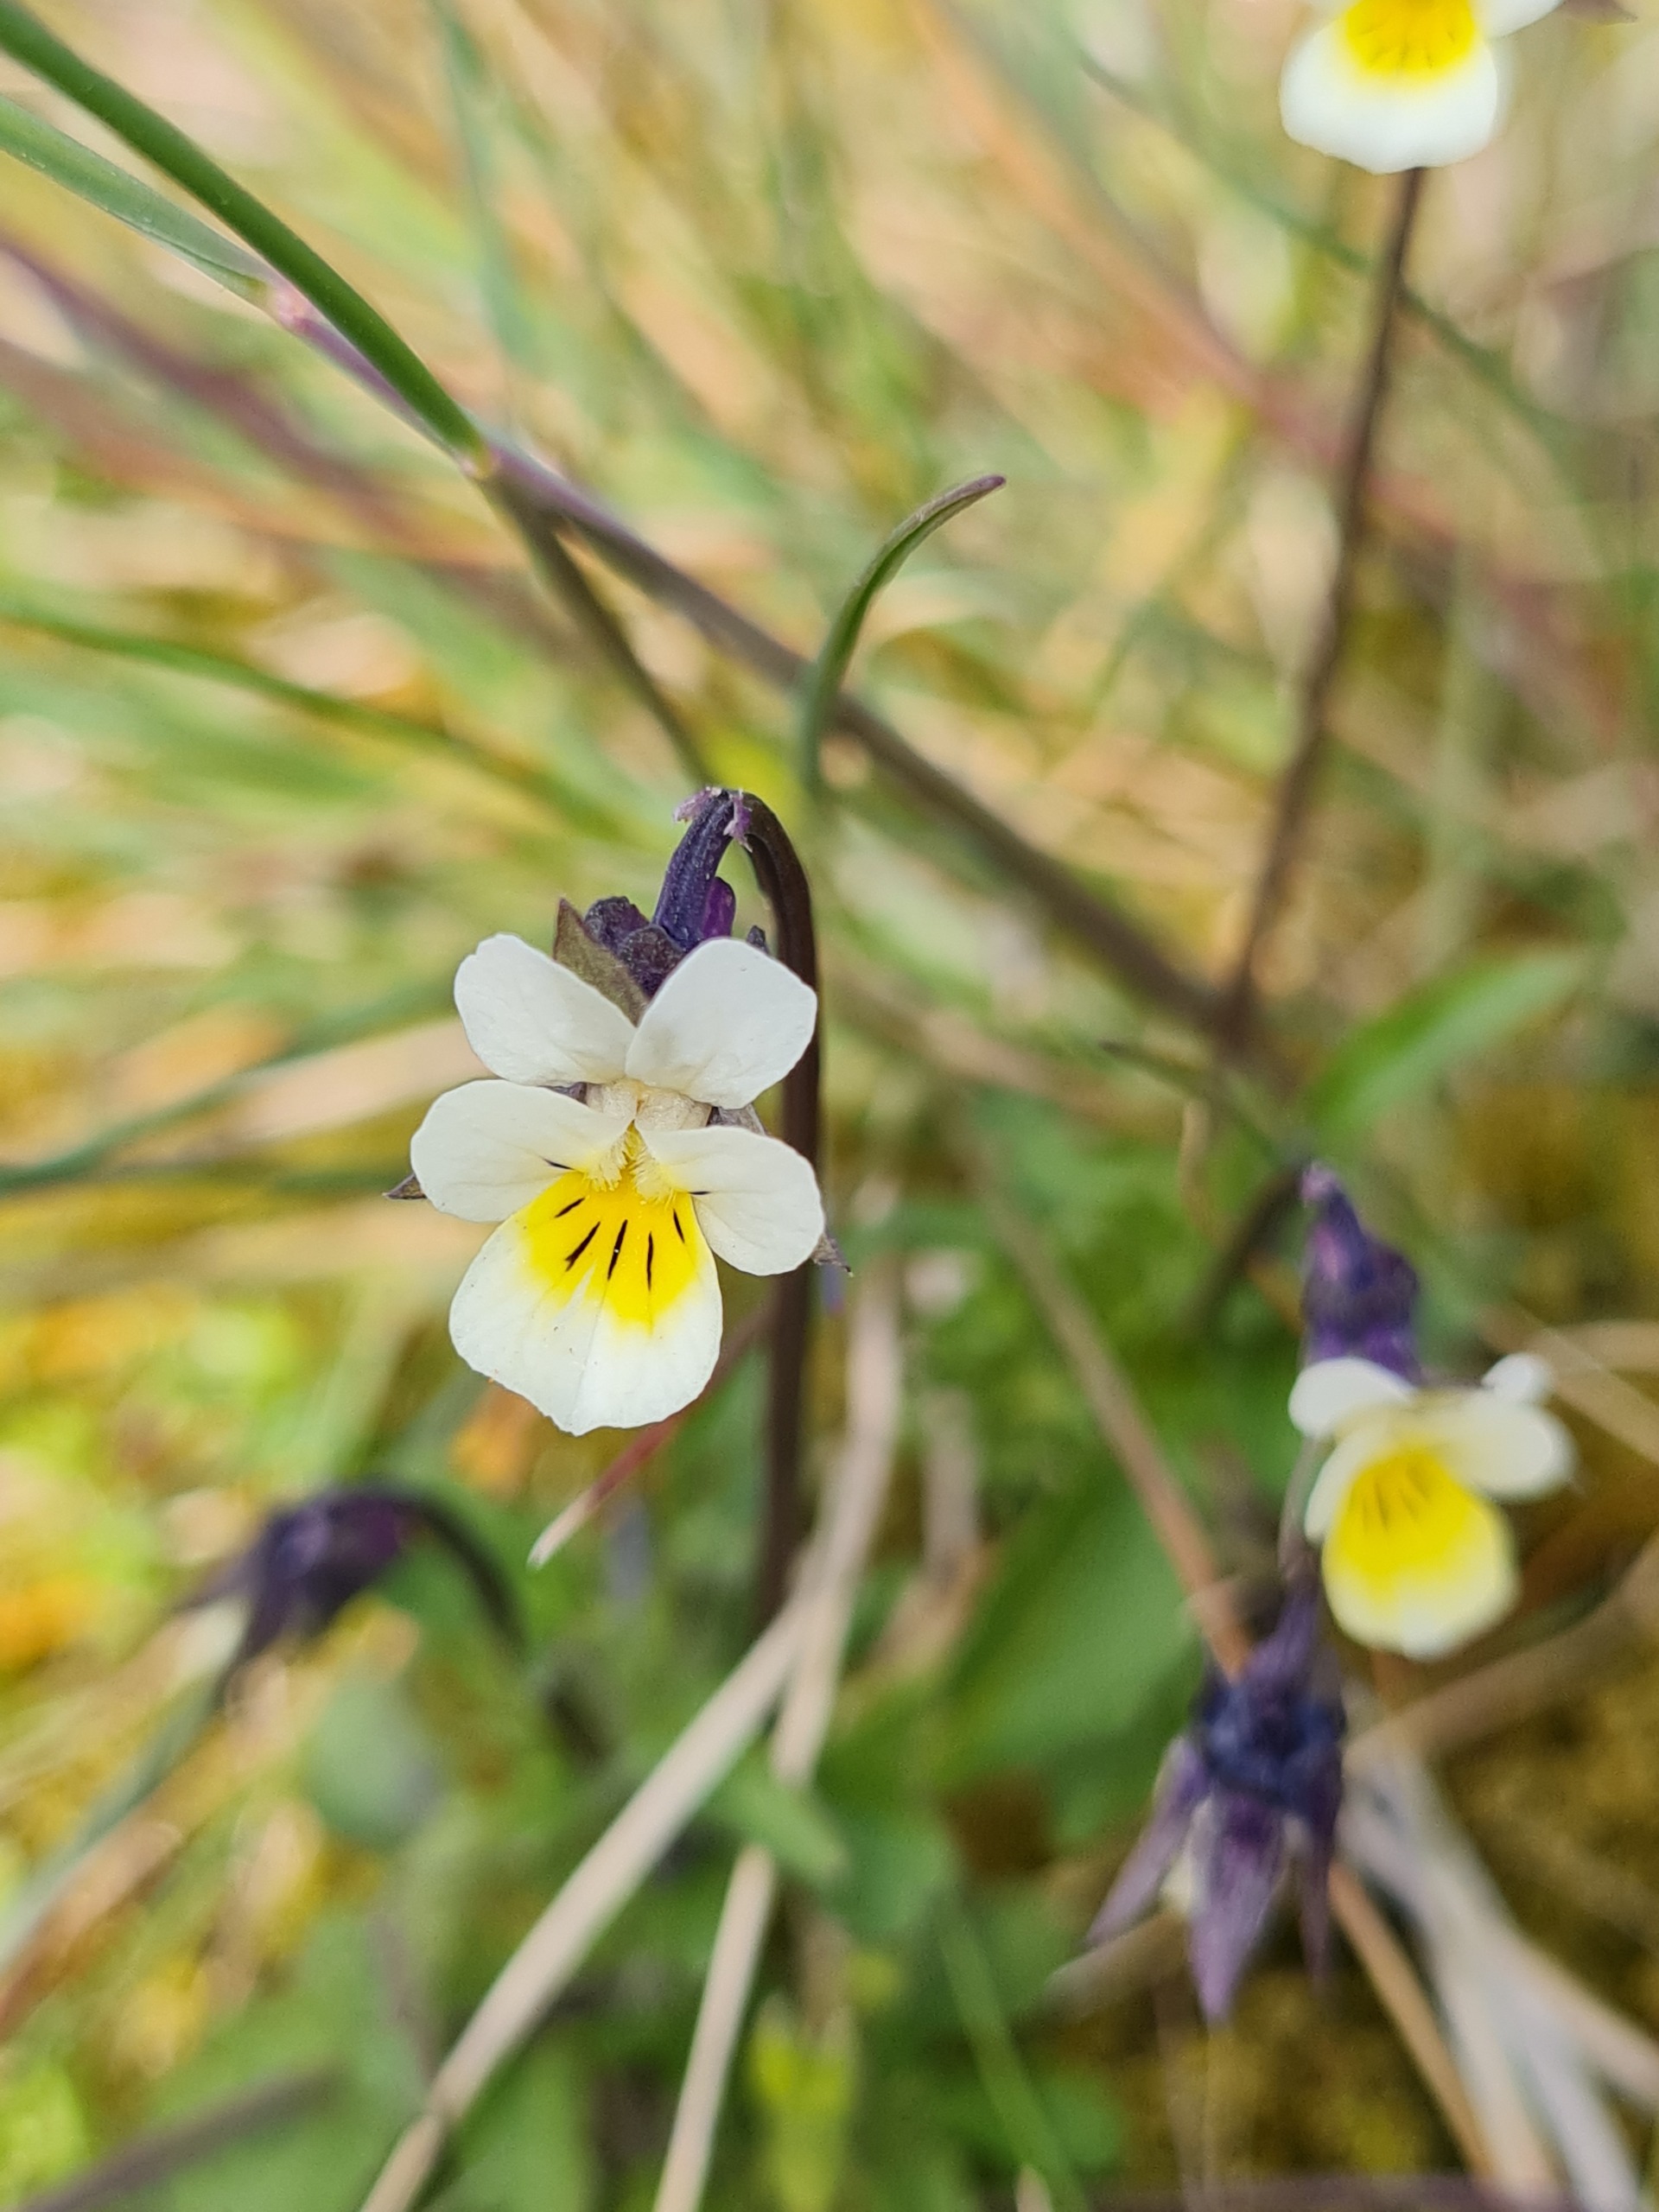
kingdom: Plantae
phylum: Tracheophyta
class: Magnoliopsida
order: Malpighiales
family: Violaceae
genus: Viola
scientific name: Viola arvensis
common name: Ager-stedmoderblomst
